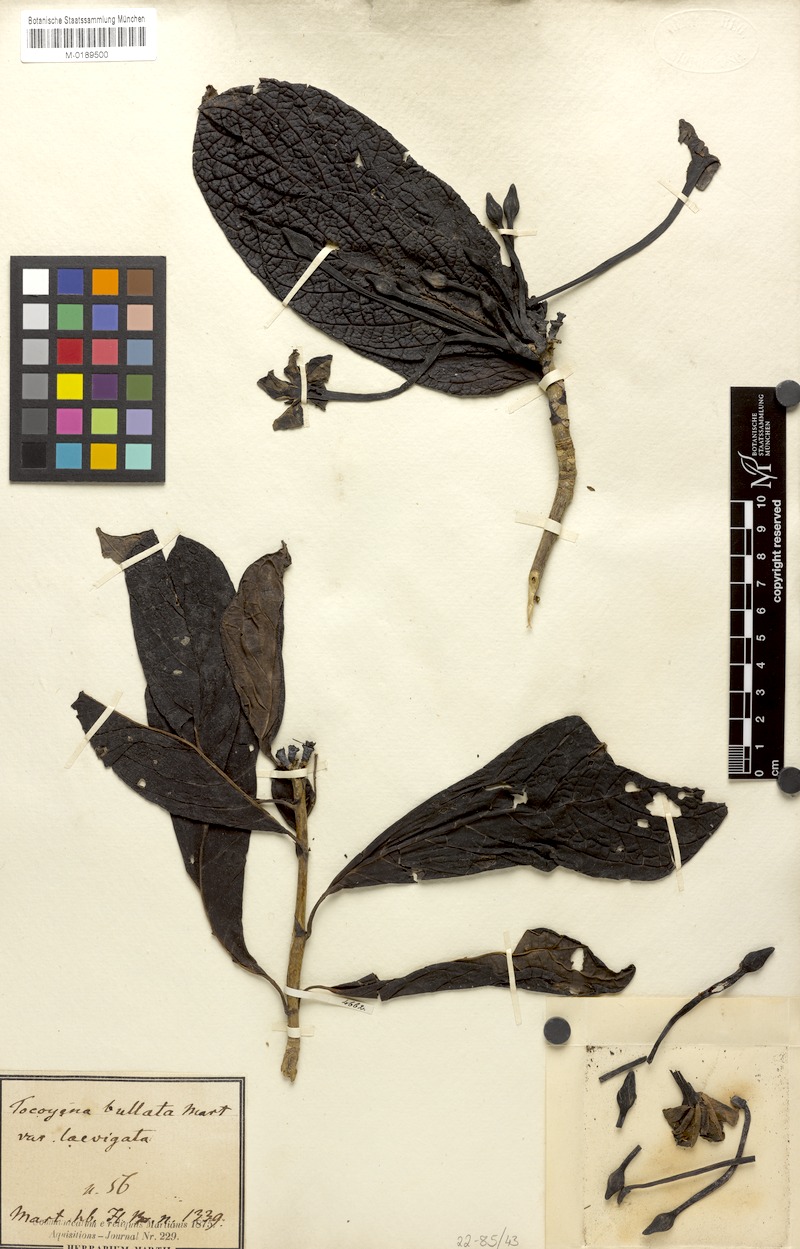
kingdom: Plantae
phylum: Tracheophyta
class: Magnoliopsida
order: Gentianales
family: Rubiaceae
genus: Tocoyena
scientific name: Tocoyena bullata
